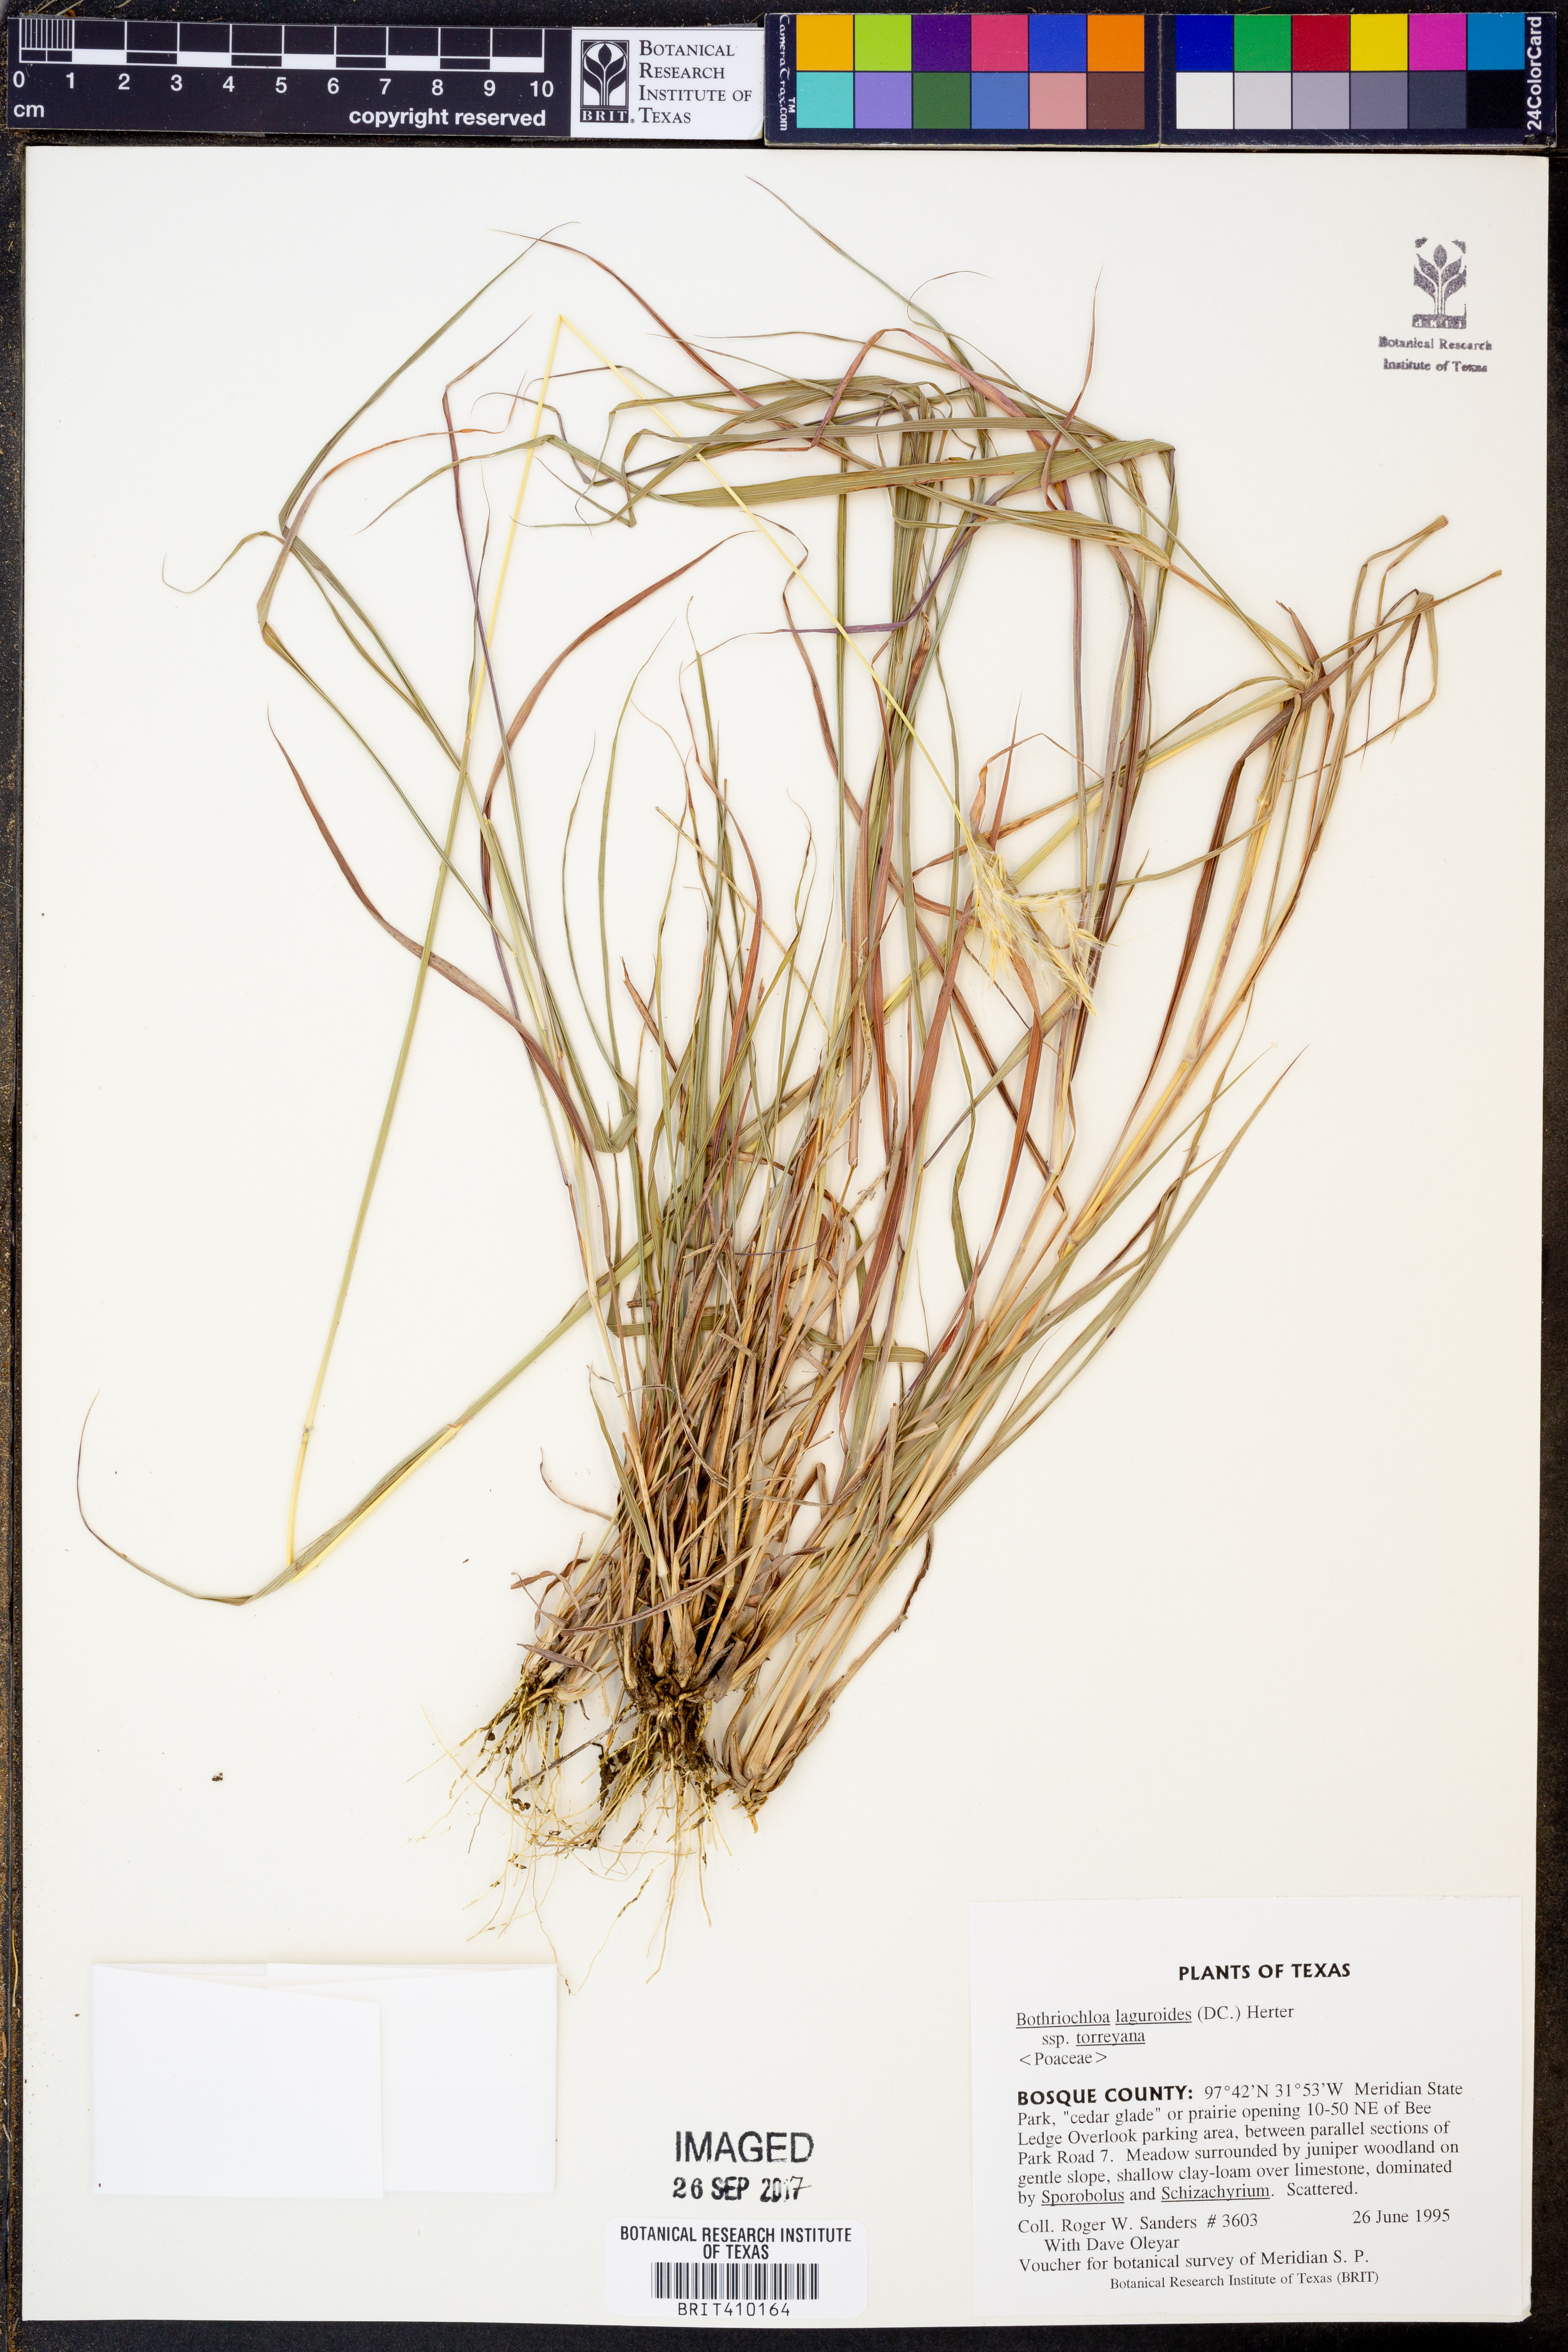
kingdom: Plantae
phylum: Tracheophyta
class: Liliopsida
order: Poales
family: Poaceae
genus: Bothriochloa
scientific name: Bothriochloa torreyana
